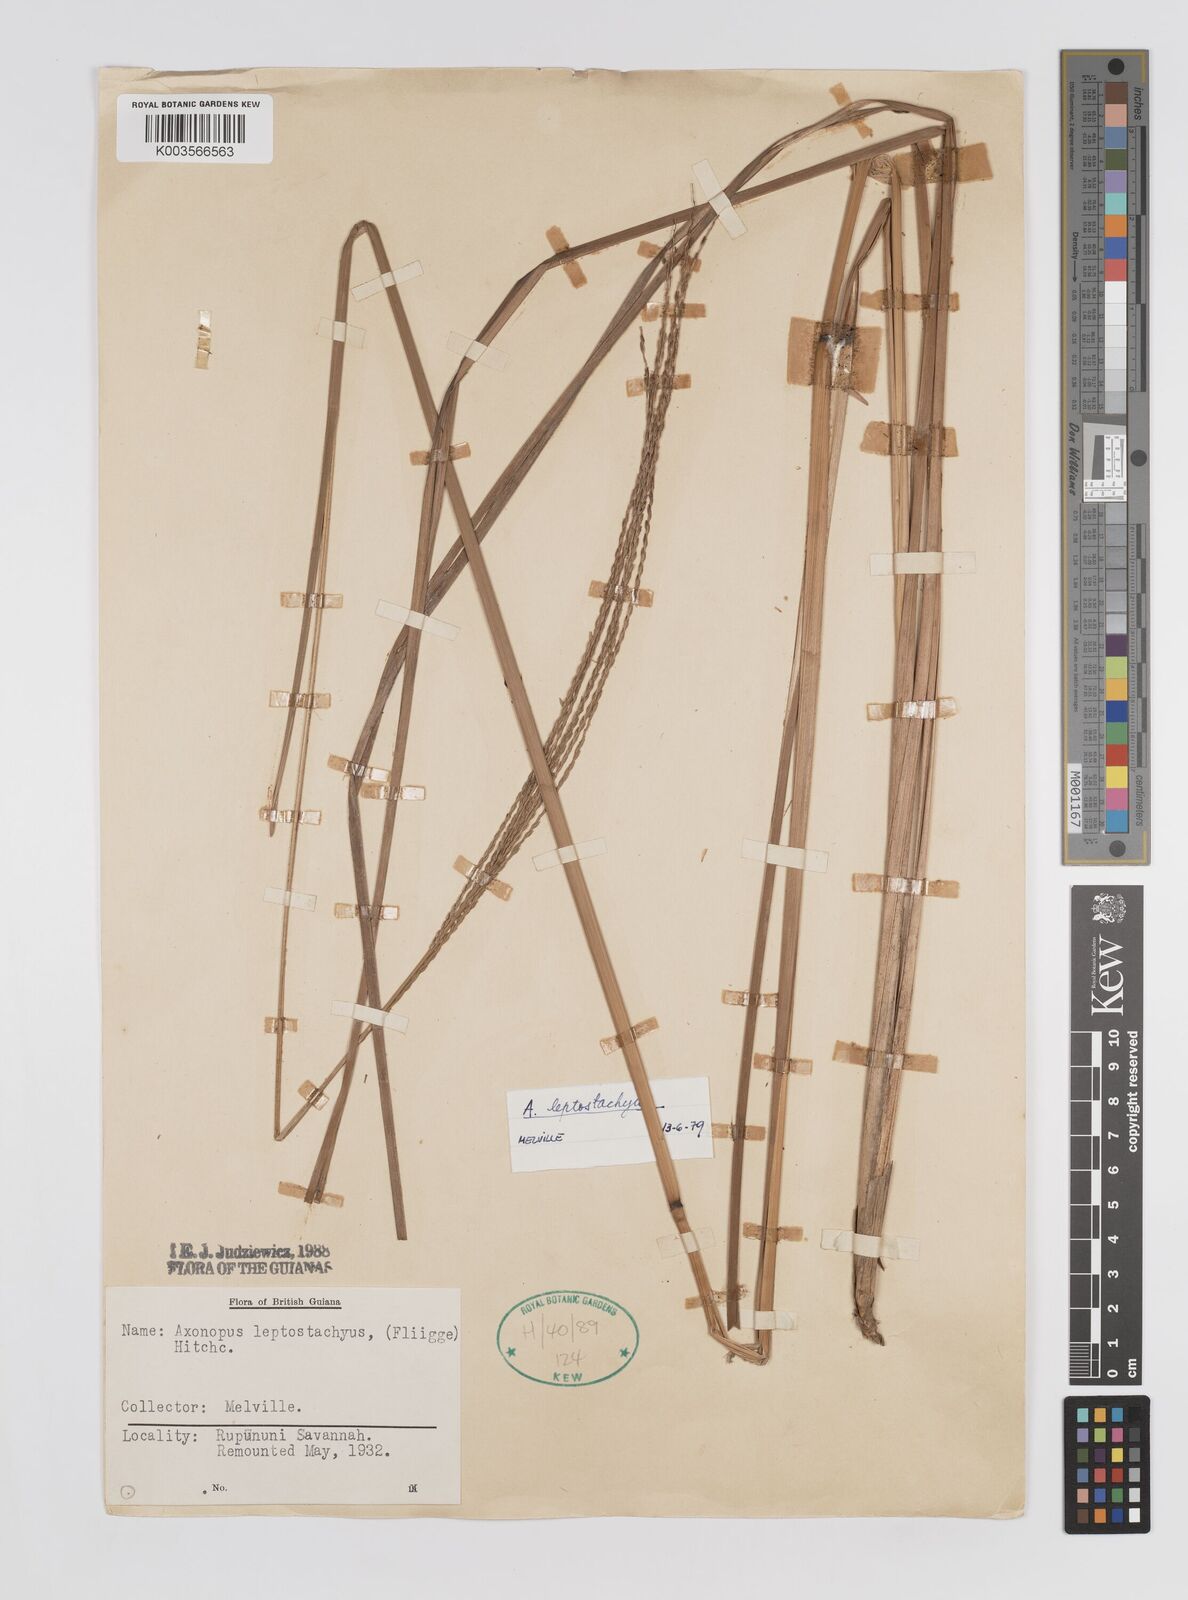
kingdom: Plantae
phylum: Tracheophyta
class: Liliopsida
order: Poales
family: Poaceae
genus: Axonopus
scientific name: Axonopus leptostachyus
